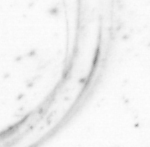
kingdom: Animalia
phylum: Chordata
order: Copelata
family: Fritillariidae
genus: Appendicularia
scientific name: Appendicularia
